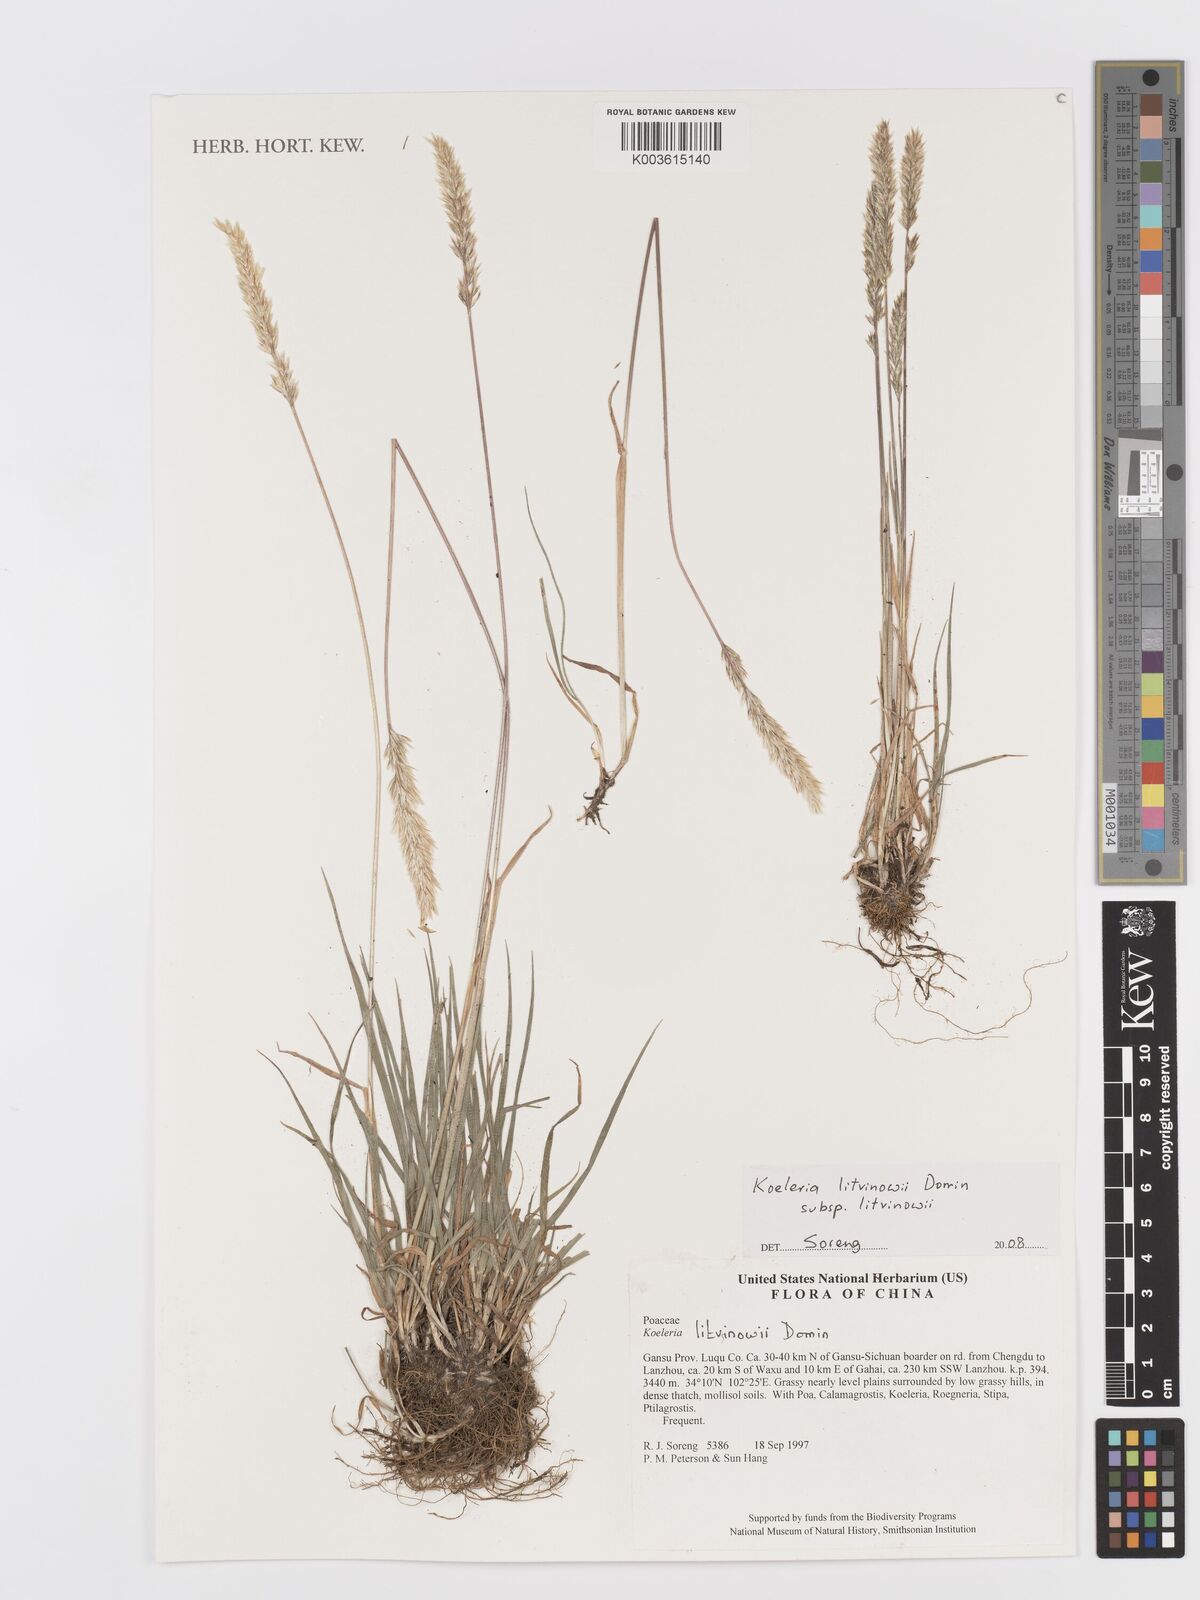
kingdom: Plantae
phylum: Tracheophyta
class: Liliopsida
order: Poales
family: Poaceae
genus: Koeleria
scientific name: Koeleria argentea
